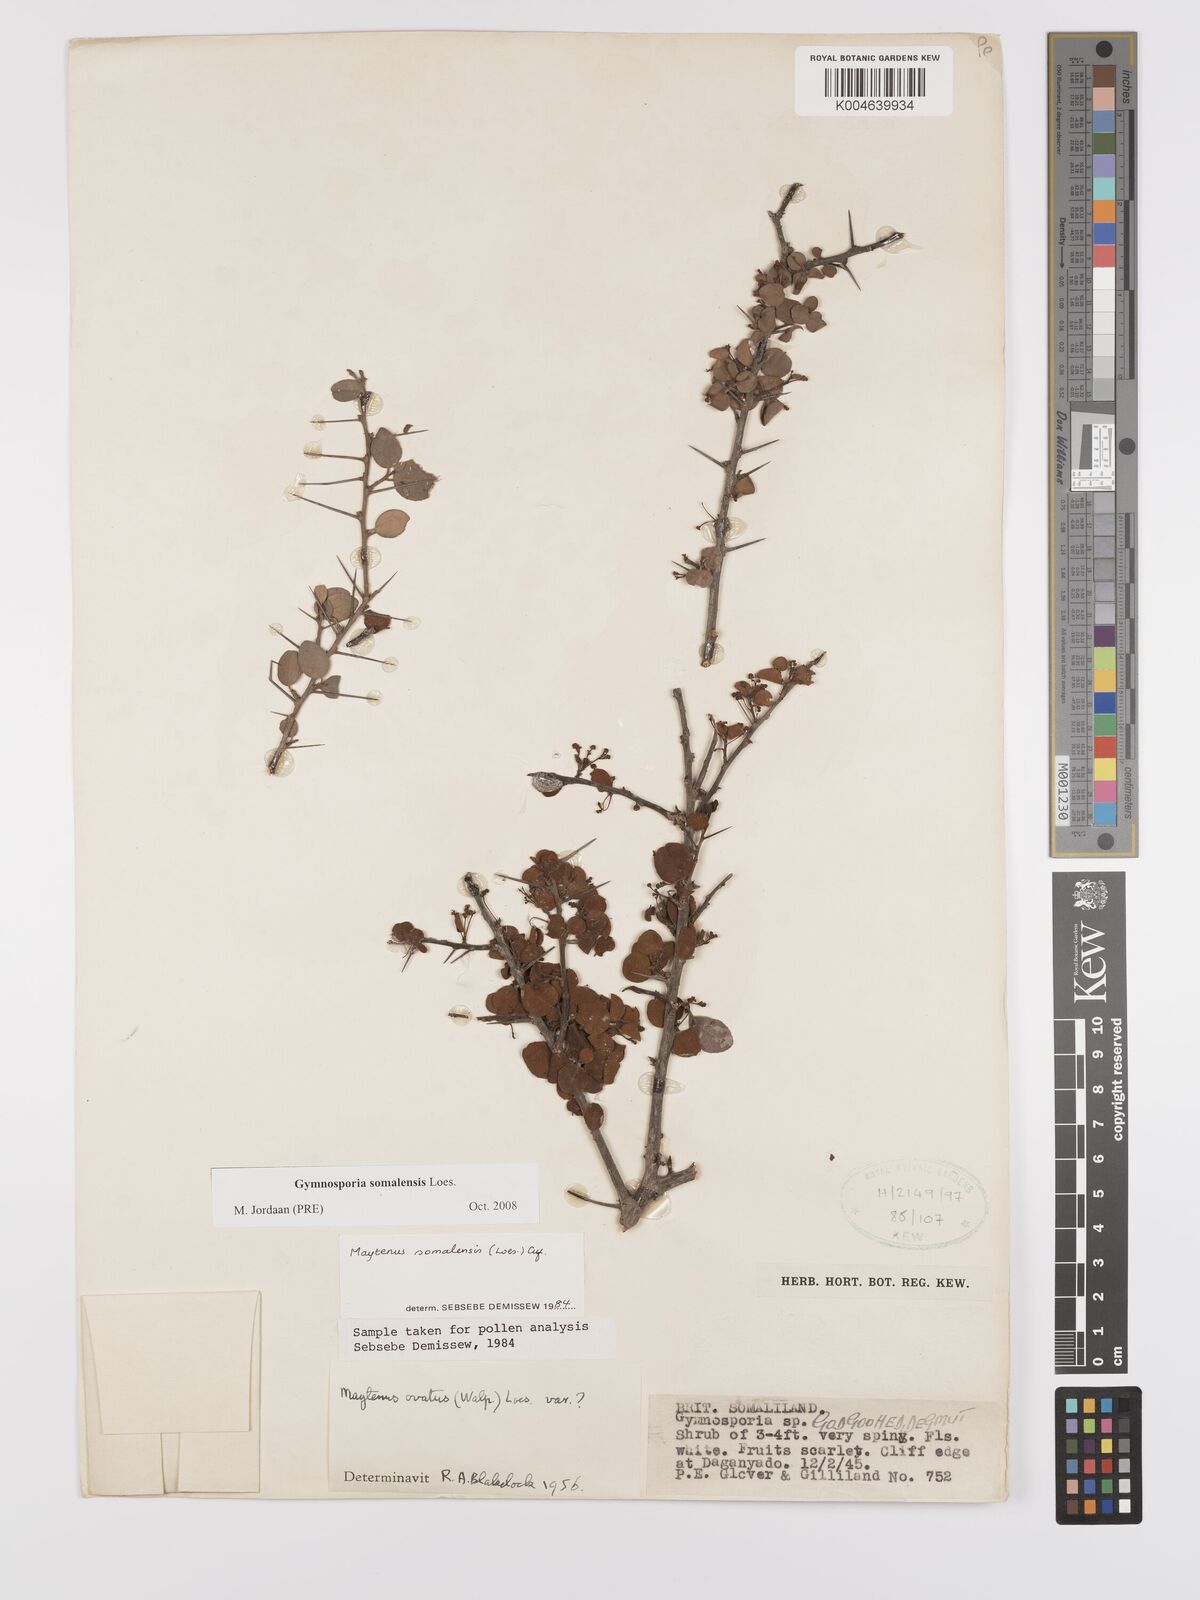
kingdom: Plantae
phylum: Tracheophyta
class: Magnoliopsida
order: Celastrales
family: Celastraceae
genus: Gymnosporia
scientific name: Gymnosporia somalensis
